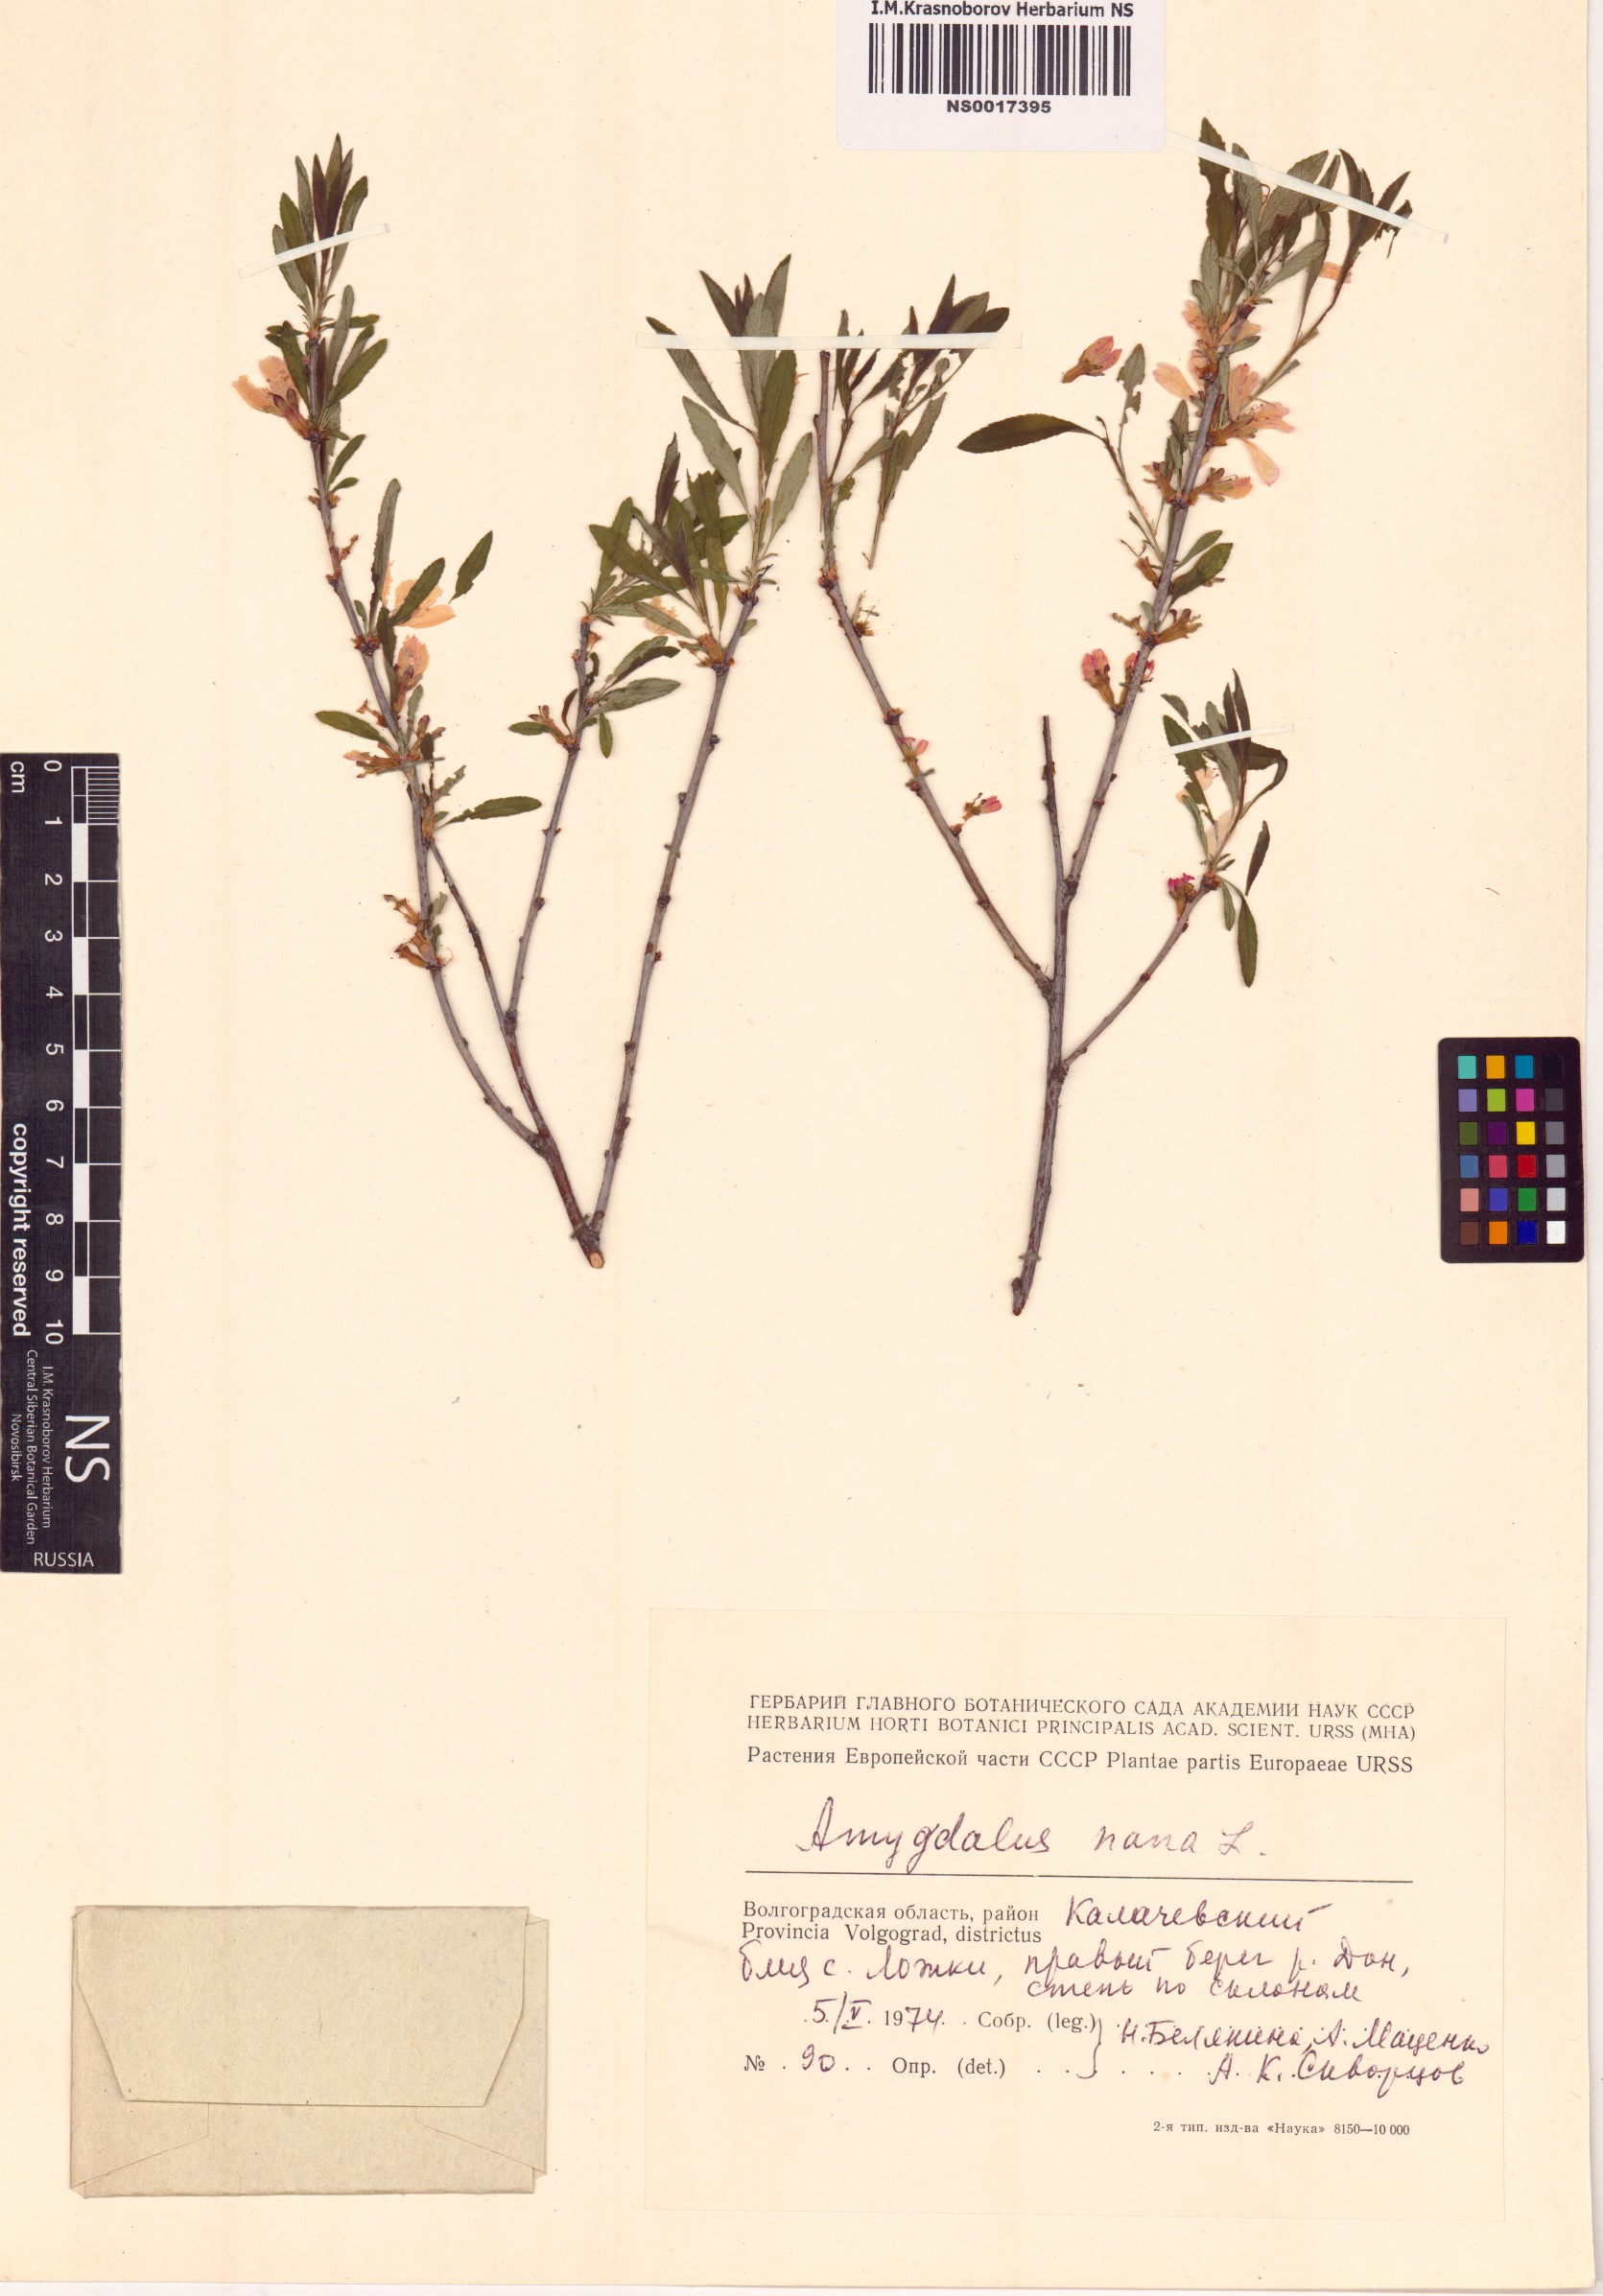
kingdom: Plantae
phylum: Tracheophyta
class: Magnoliopsida
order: Rosales
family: Rosaceae
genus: Prunus
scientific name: Prunus tenella
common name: Dwarf russian almond
